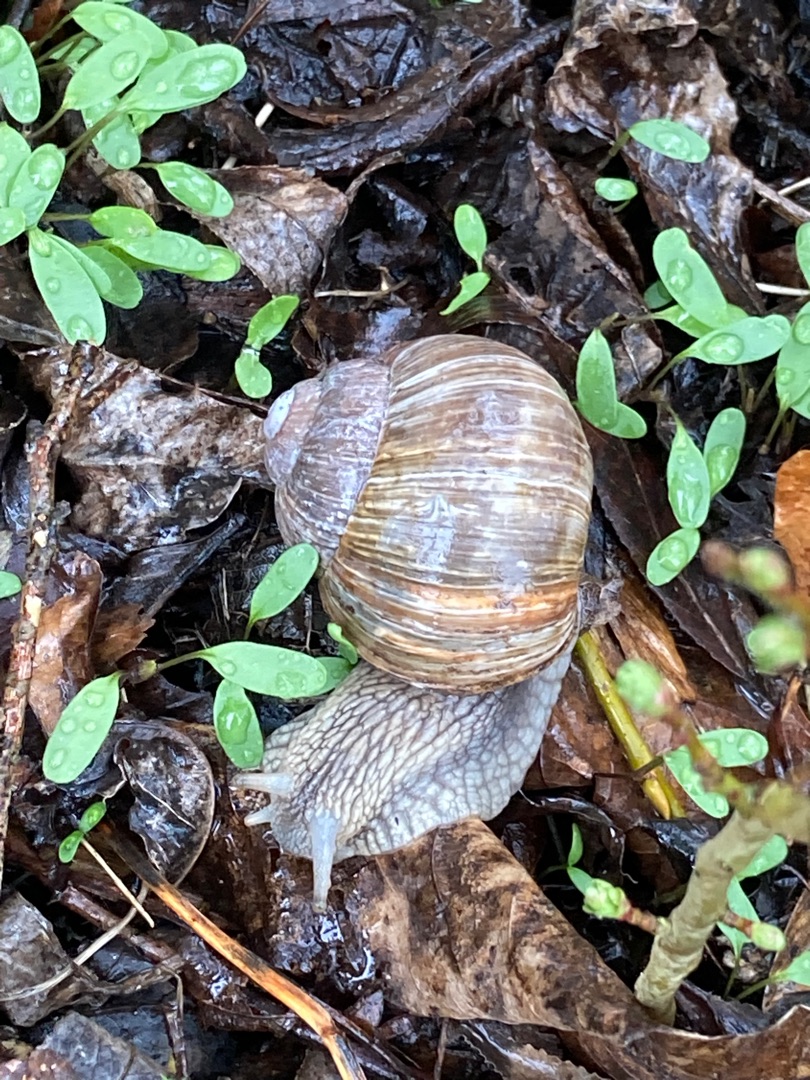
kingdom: Animalia
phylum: Mollusca
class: Gastropoda
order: Stylommatophora
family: Helicidae
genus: Helix
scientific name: Helix pomatia
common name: Vinbjergsnegl
